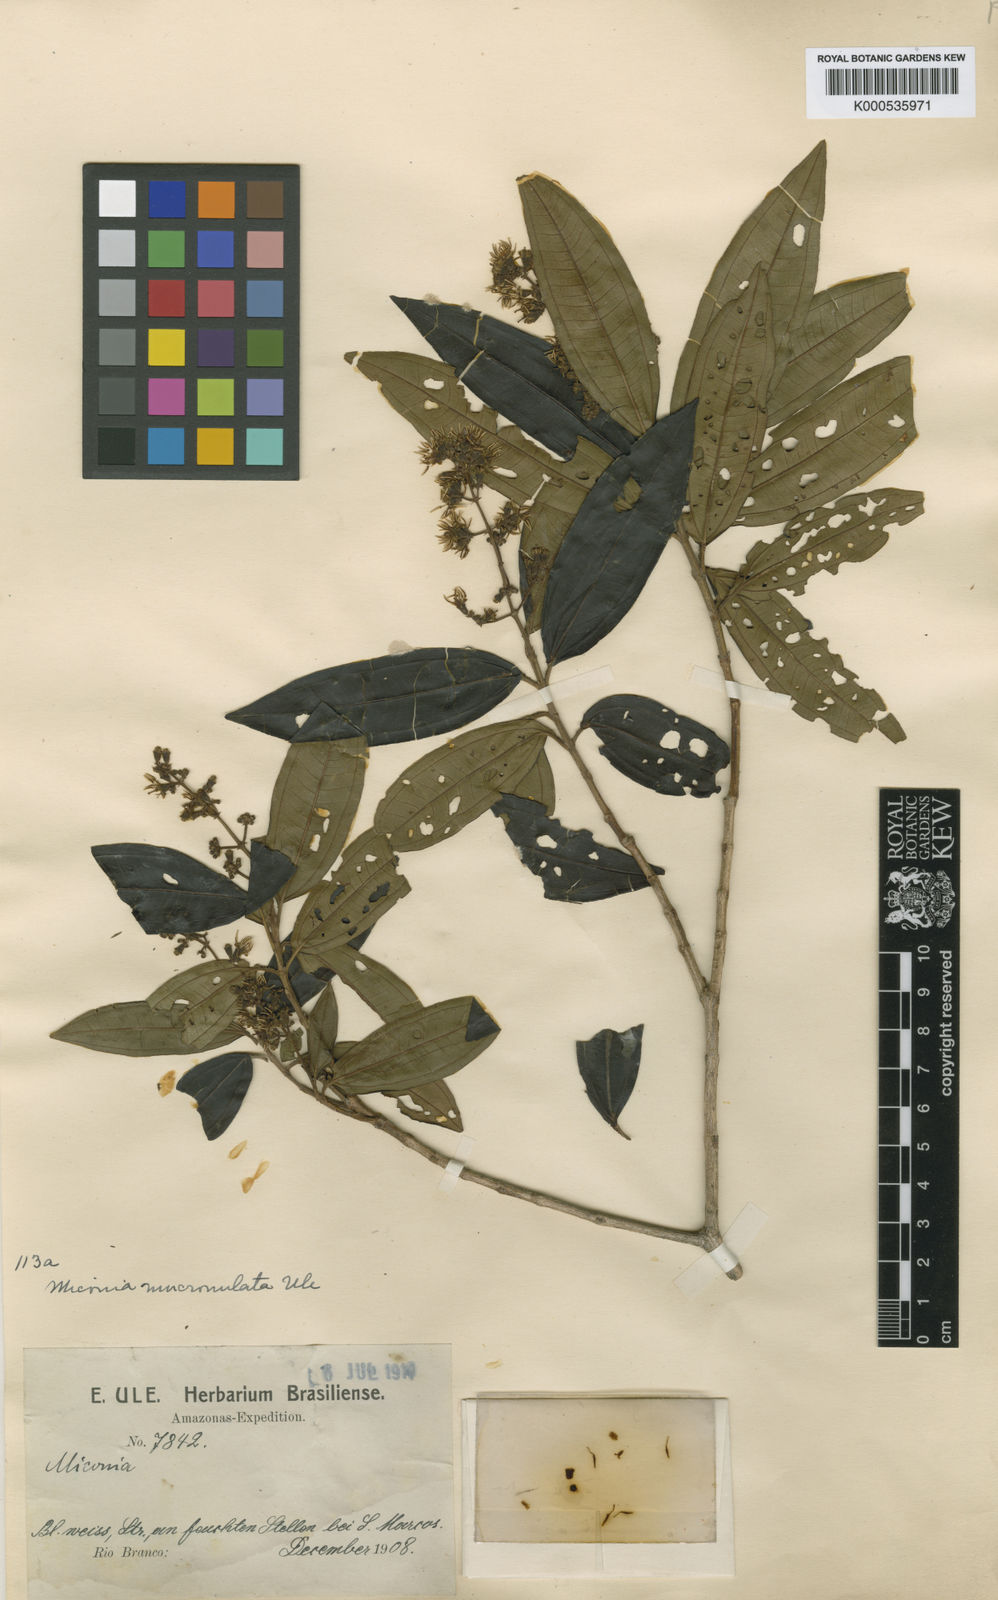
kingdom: Plantae
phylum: Tracheophyta
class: Magnoliopsida
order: Myrtales
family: Melastomataceae
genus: Miconia
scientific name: Miconia prasina
